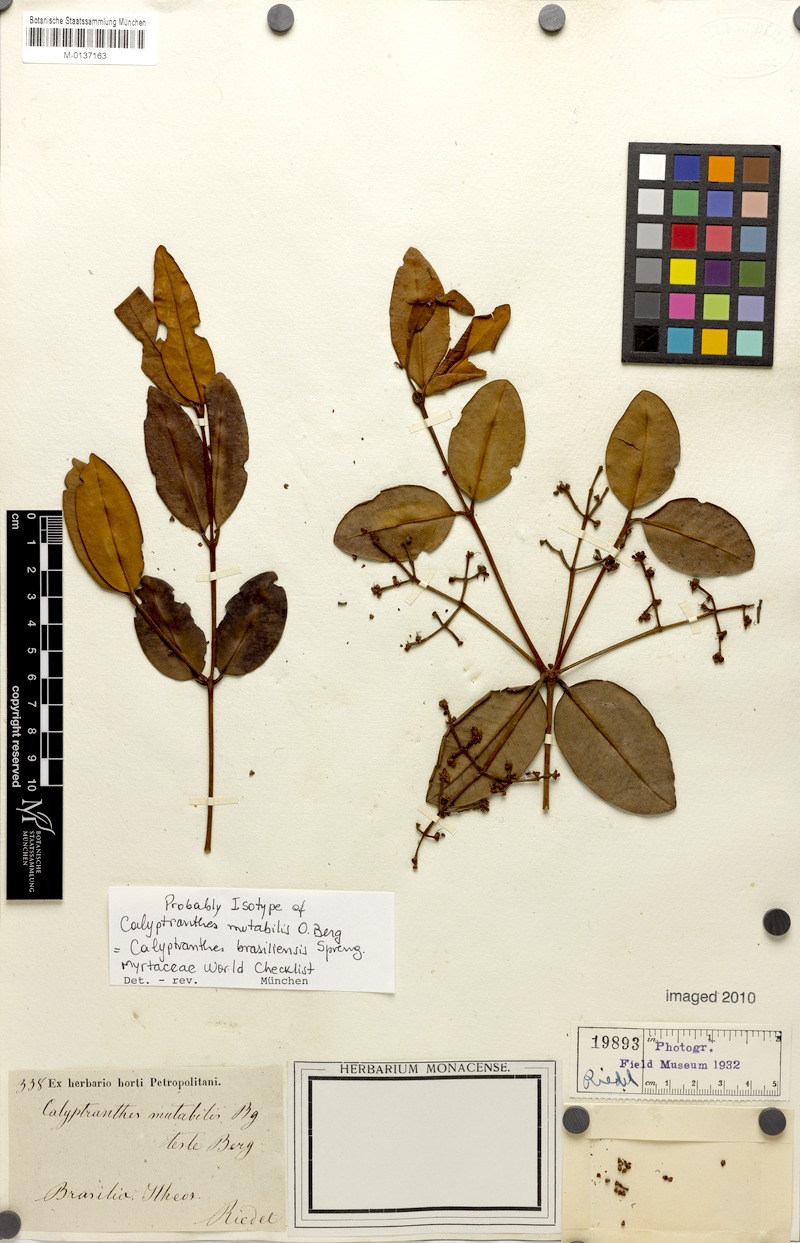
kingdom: Plantae
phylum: Tracheophyta
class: Magnoliopsida
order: Myrtales
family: Myrtaceae
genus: Myrcia
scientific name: Myrcia neobrasiliensis
